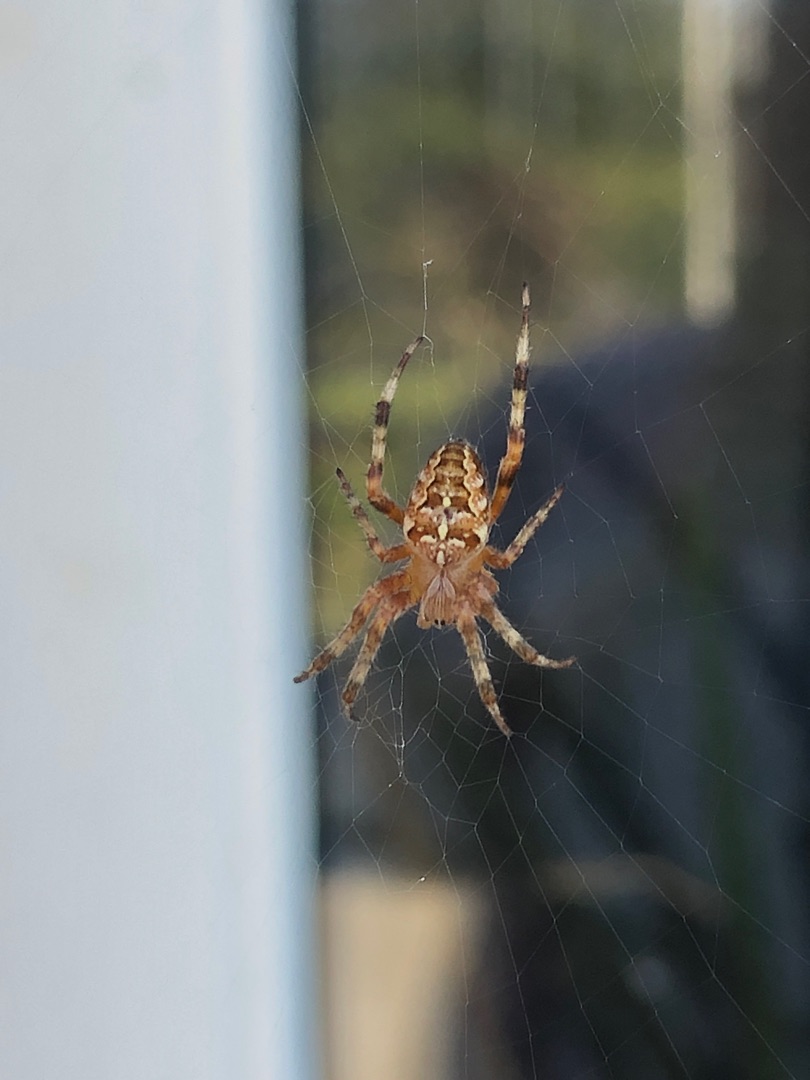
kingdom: Animalia
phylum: Arthropoda
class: Arachnida
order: Araneae
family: Araneidae
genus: Araneus
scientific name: Araneus diadematus
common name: Korsedderkop
